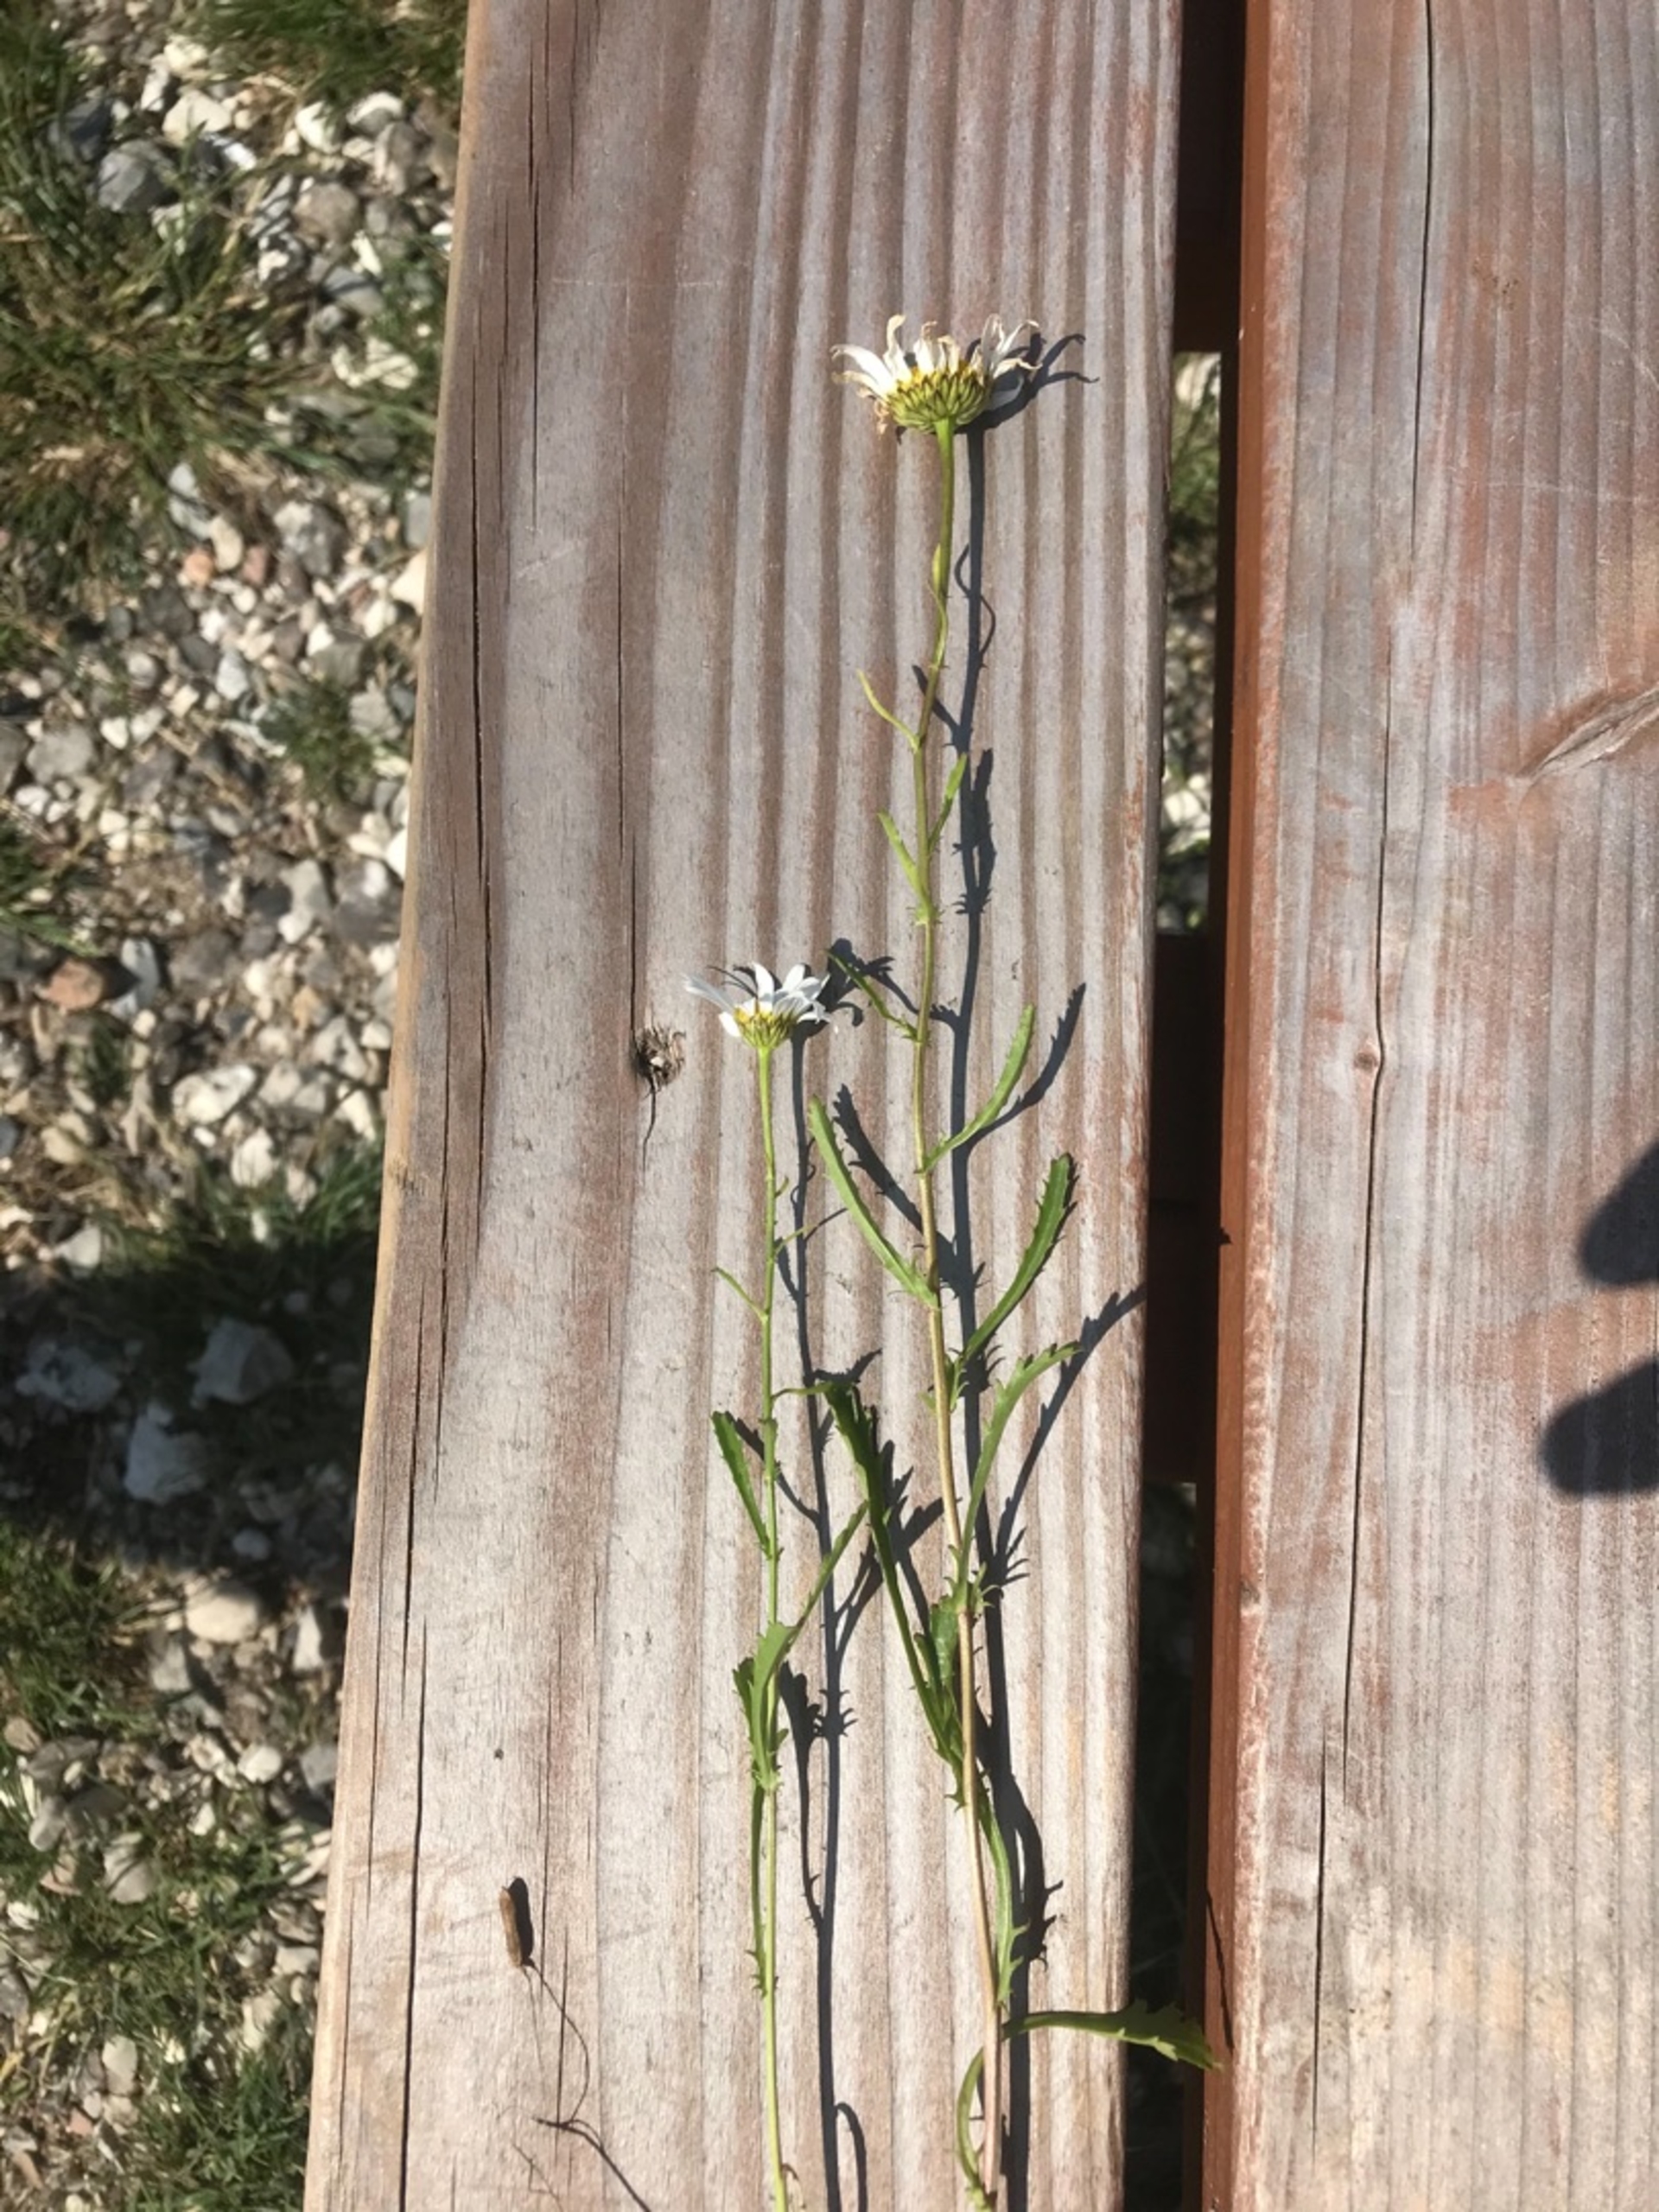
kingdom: Plantae
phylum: Tracheophyta
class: Magnoliopsida
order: Asterales
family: Asteraceae
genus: Leucanthemum
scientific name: Leucanthemum vulgare
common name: Hvid okseøje
